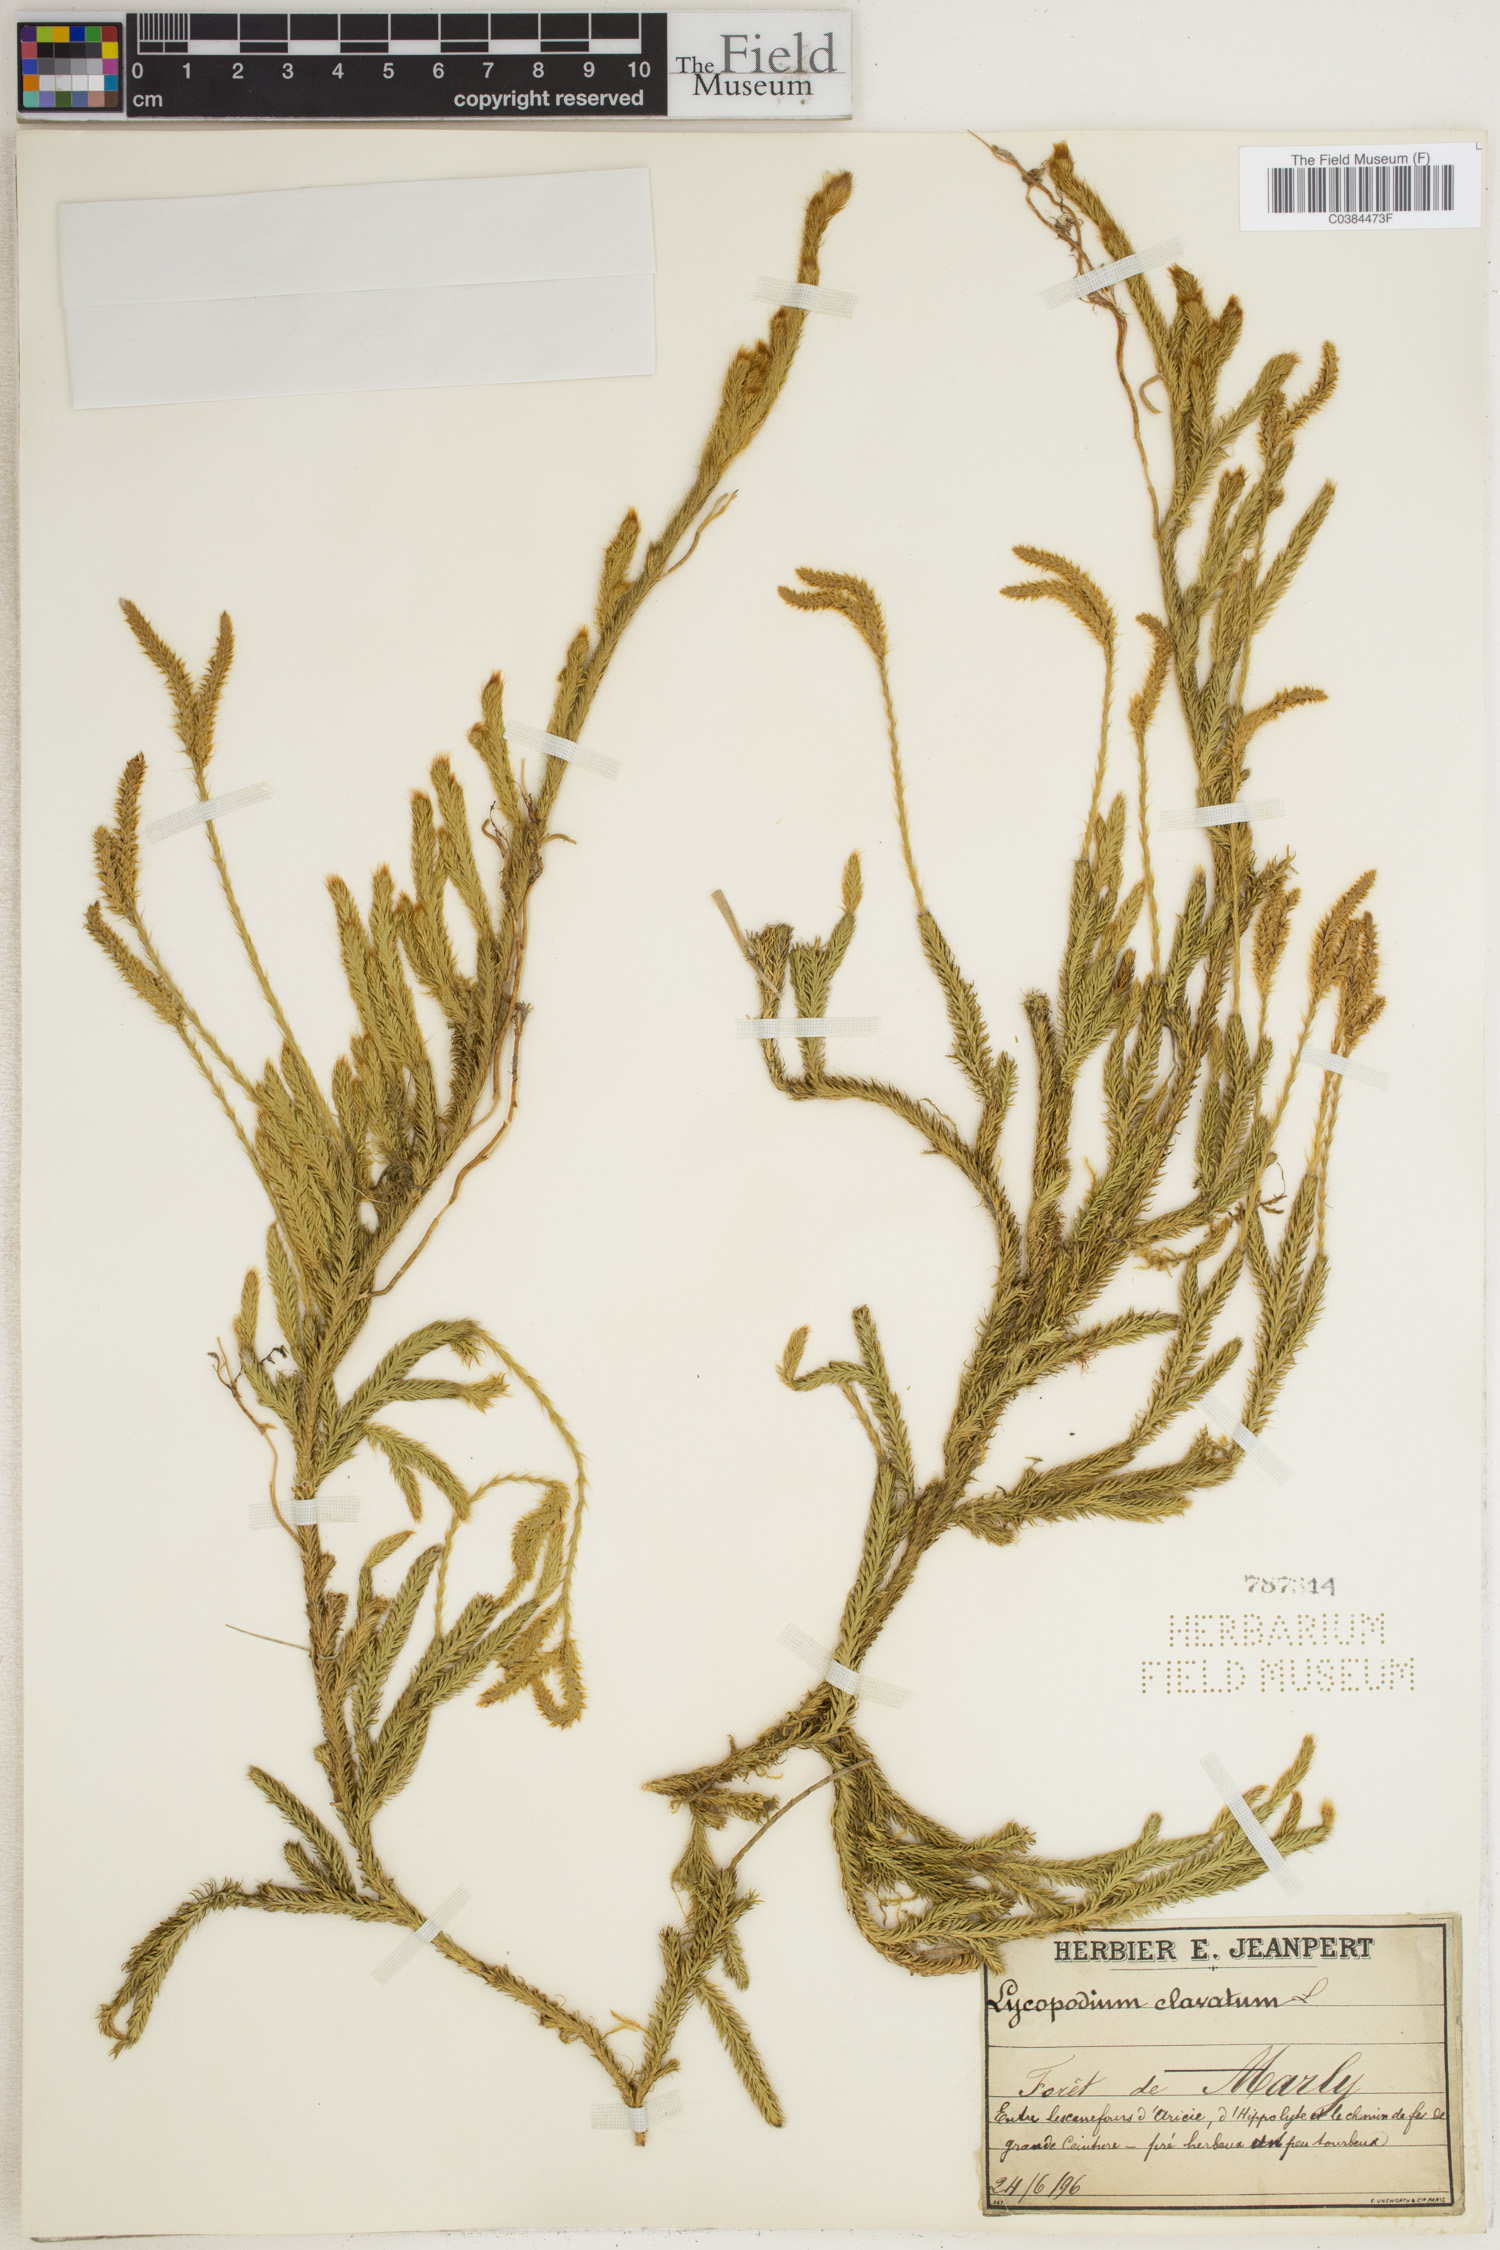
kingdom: Plantae
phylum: Tracheophyta
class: Lycopodiopsida
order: Lycopodiales
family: Lycopodiaceae
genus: Lycopodium
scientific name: Lycopodium clavatum
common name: Stag's-horn clubmoss
